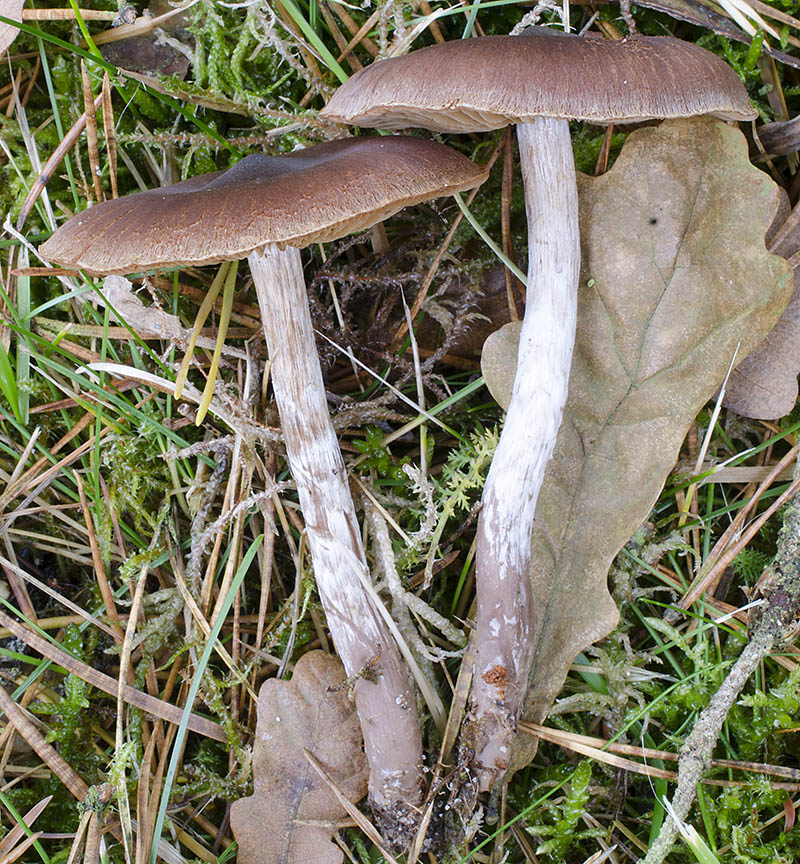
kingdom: Fungi
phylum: Basidiomycota
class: Agaricomycetes
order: Agaricales
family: Cortinariaceae
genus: Cortinarius
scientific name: Cortinarius heterodepressus
